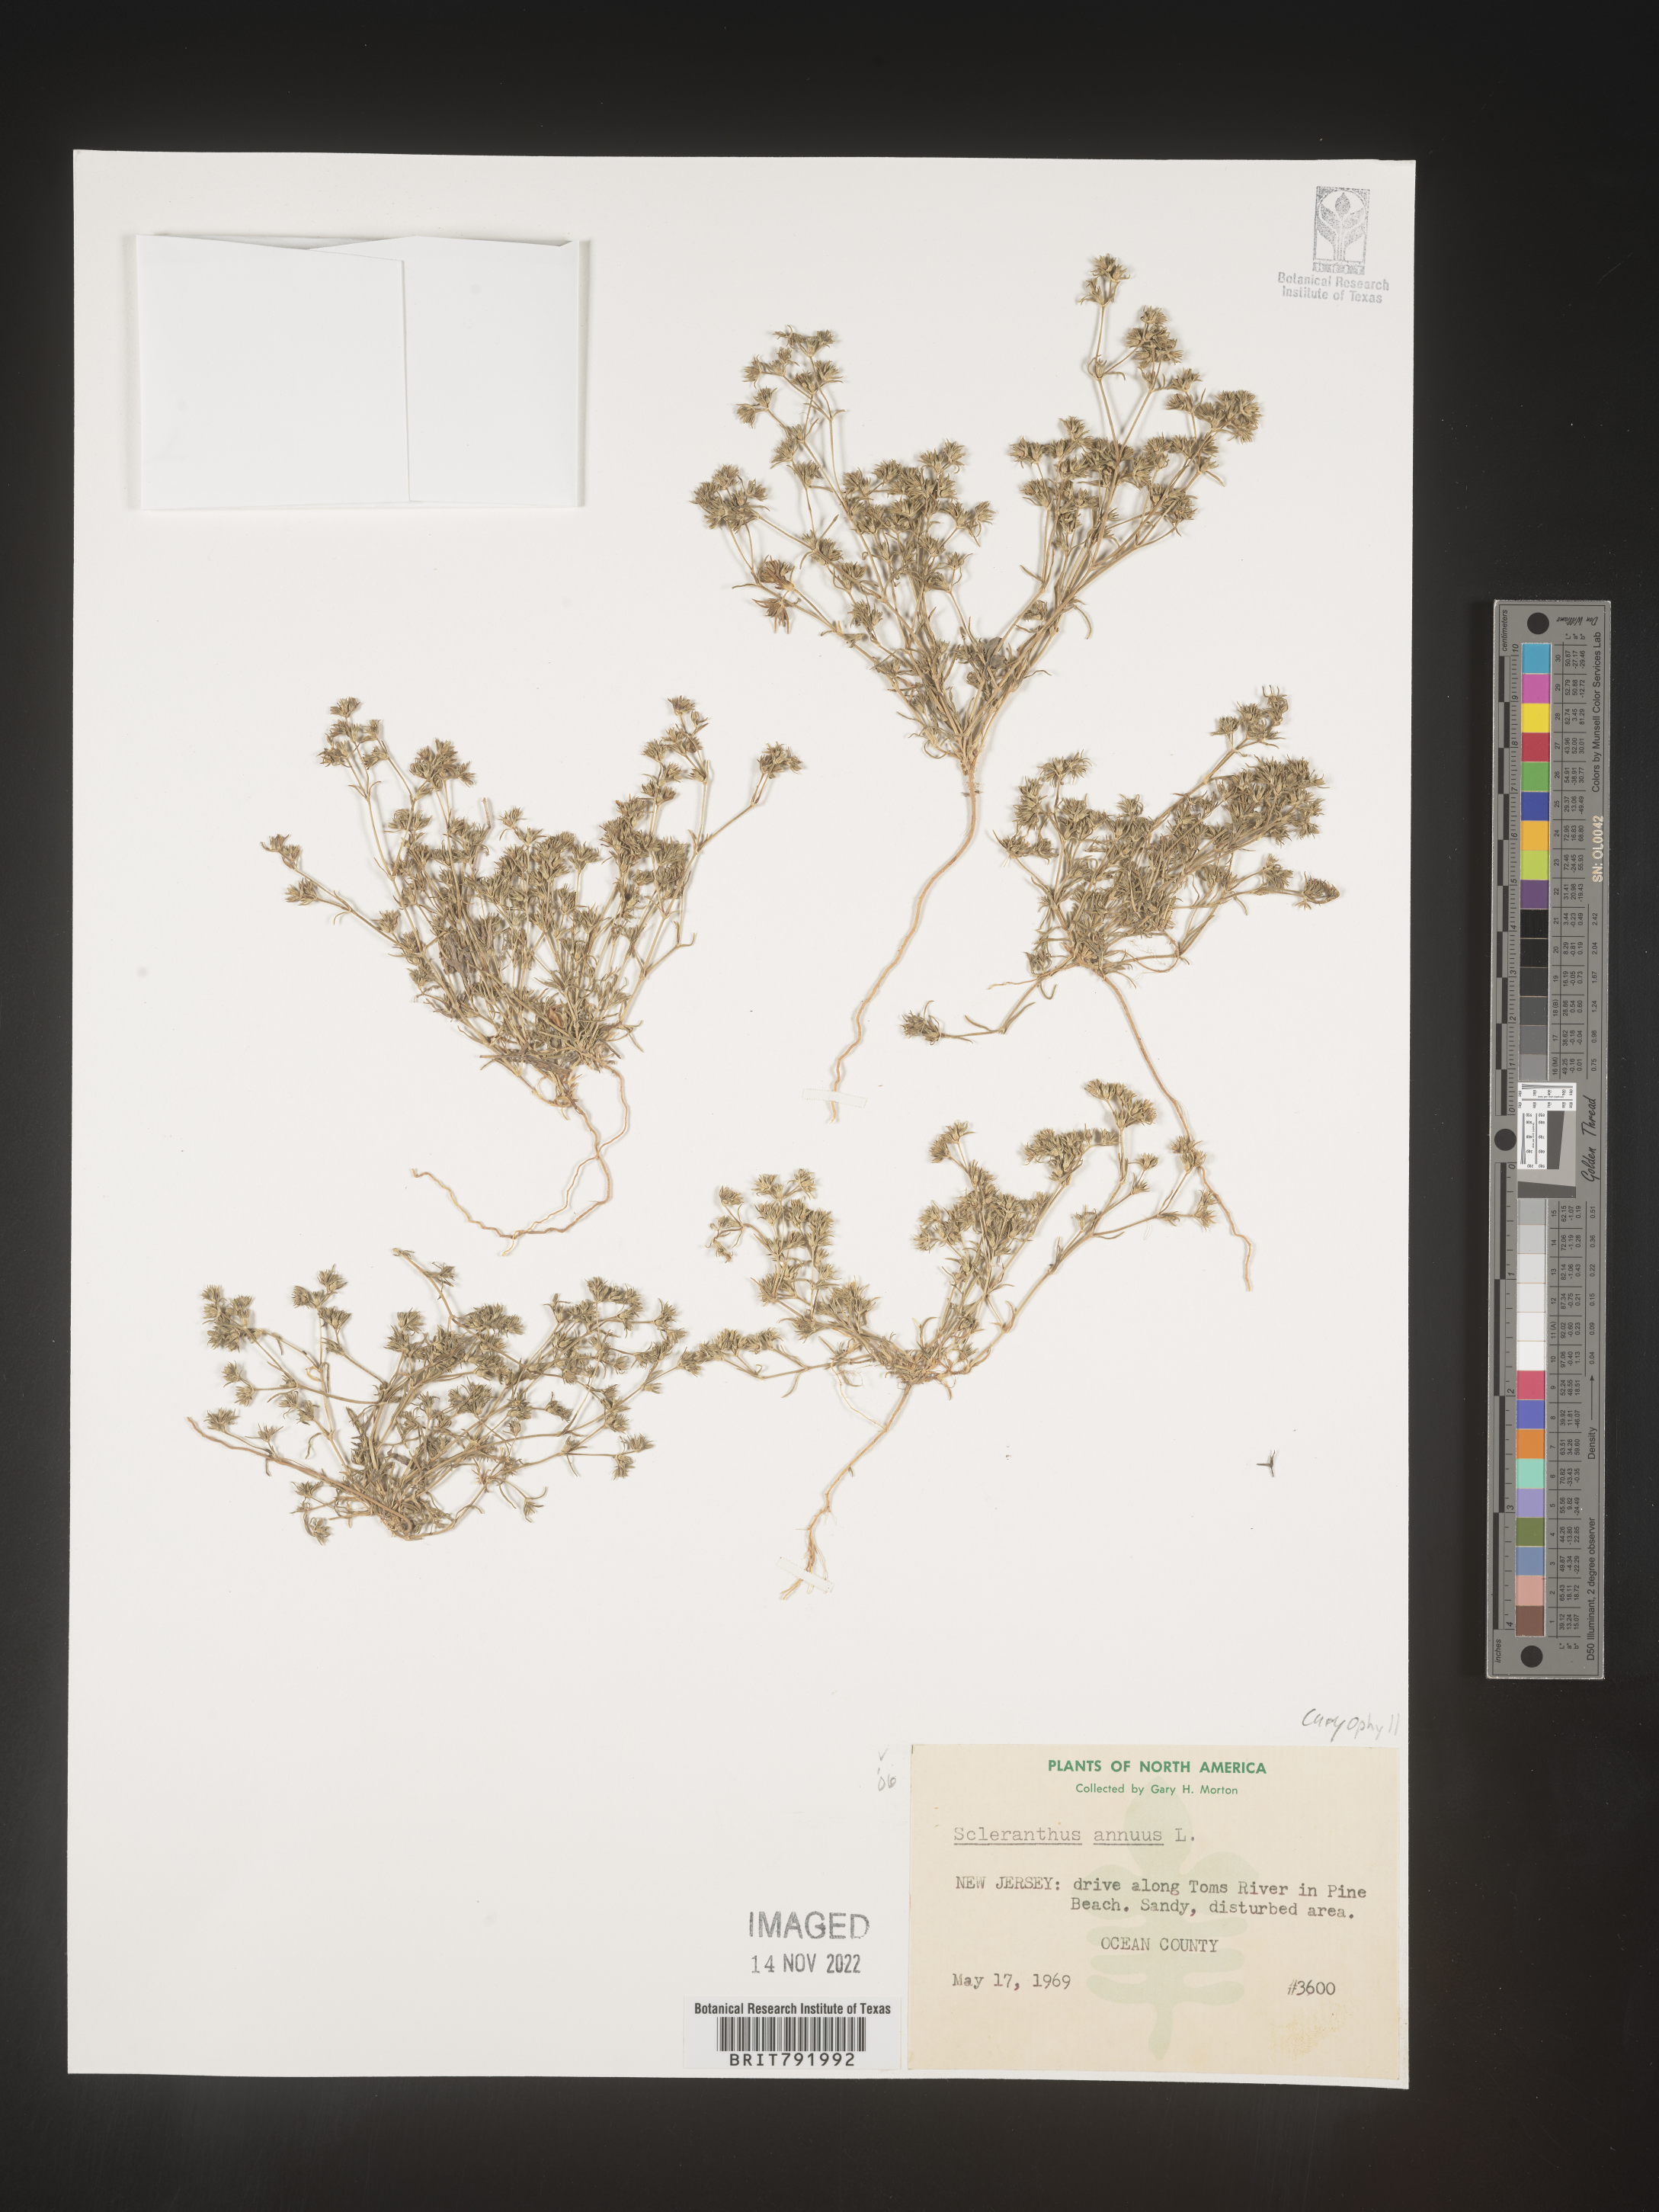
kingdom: Plantae
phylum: Tracheophyta
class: Magnoliopsida
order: Caryophyllales
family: Caryophyllaceae
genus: Scleranthus
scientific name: Scleranthus
